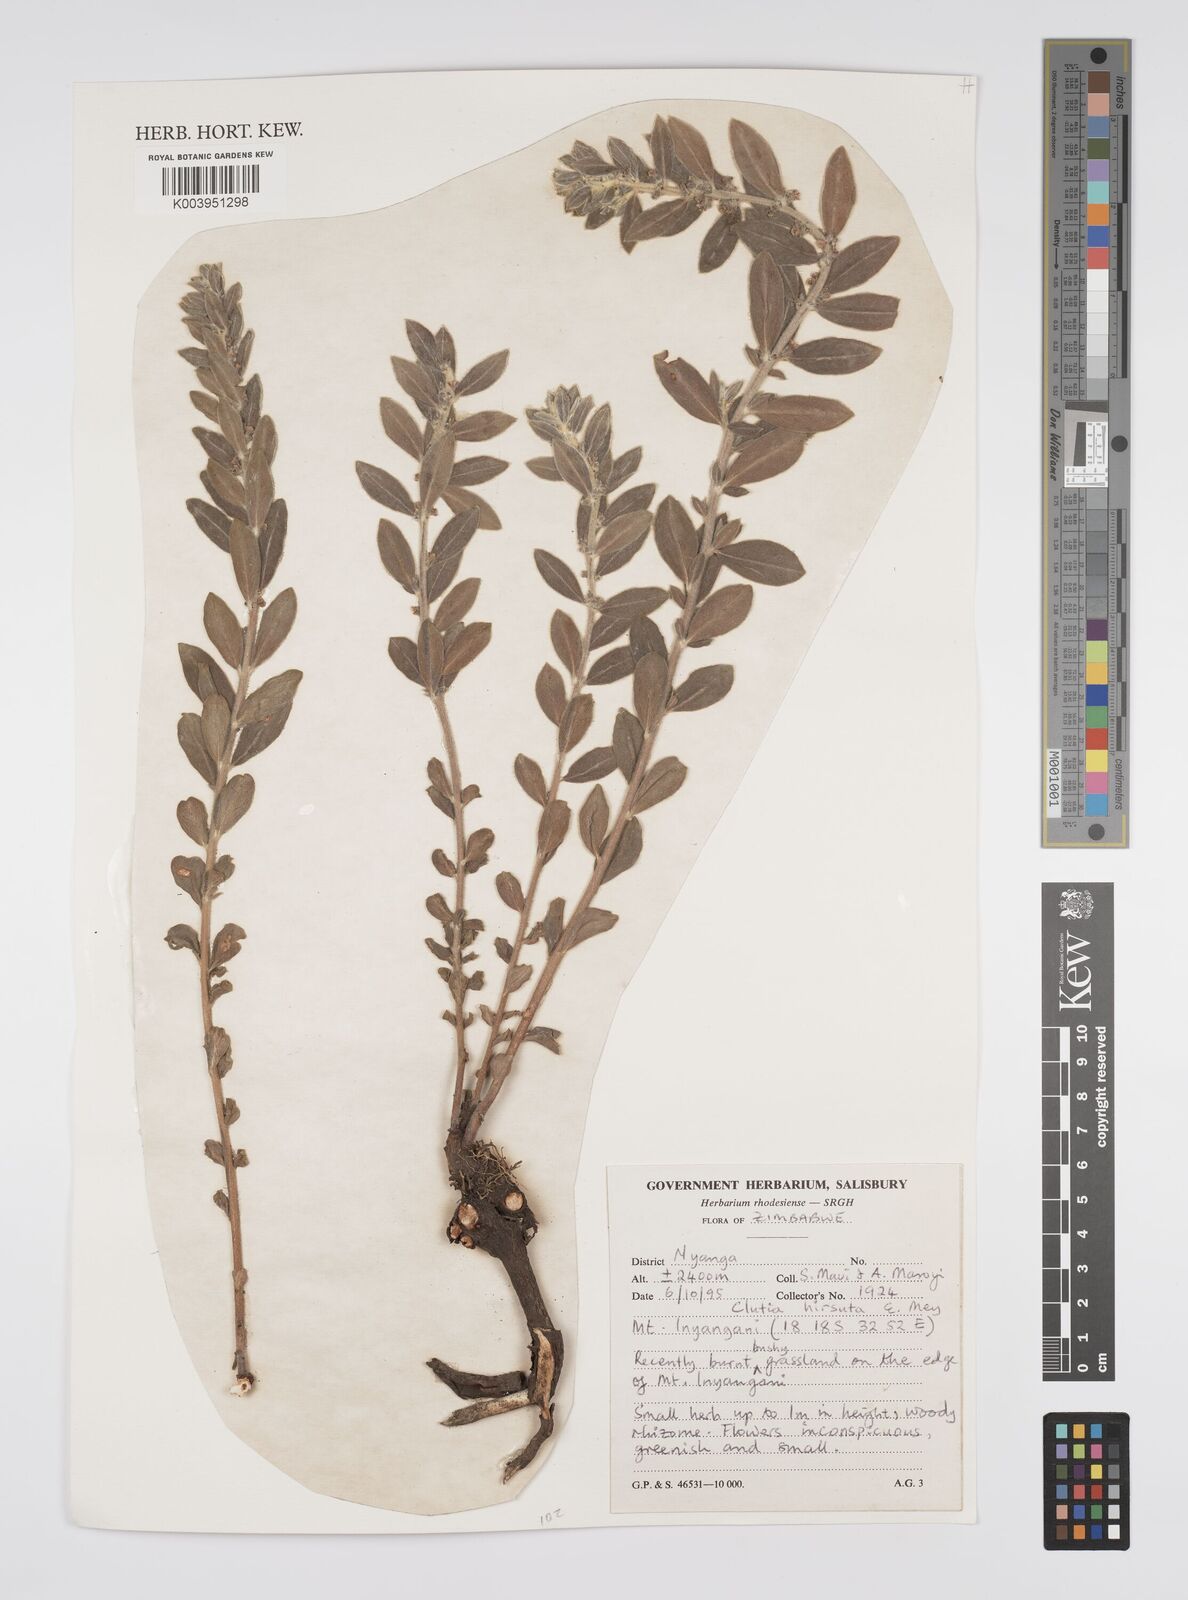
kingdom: Plantae
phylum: Tracheophyta
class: Magnoliopsida
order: Malpighiales
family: Peraceae
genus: Clutia
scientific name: Clutia hirsuta
